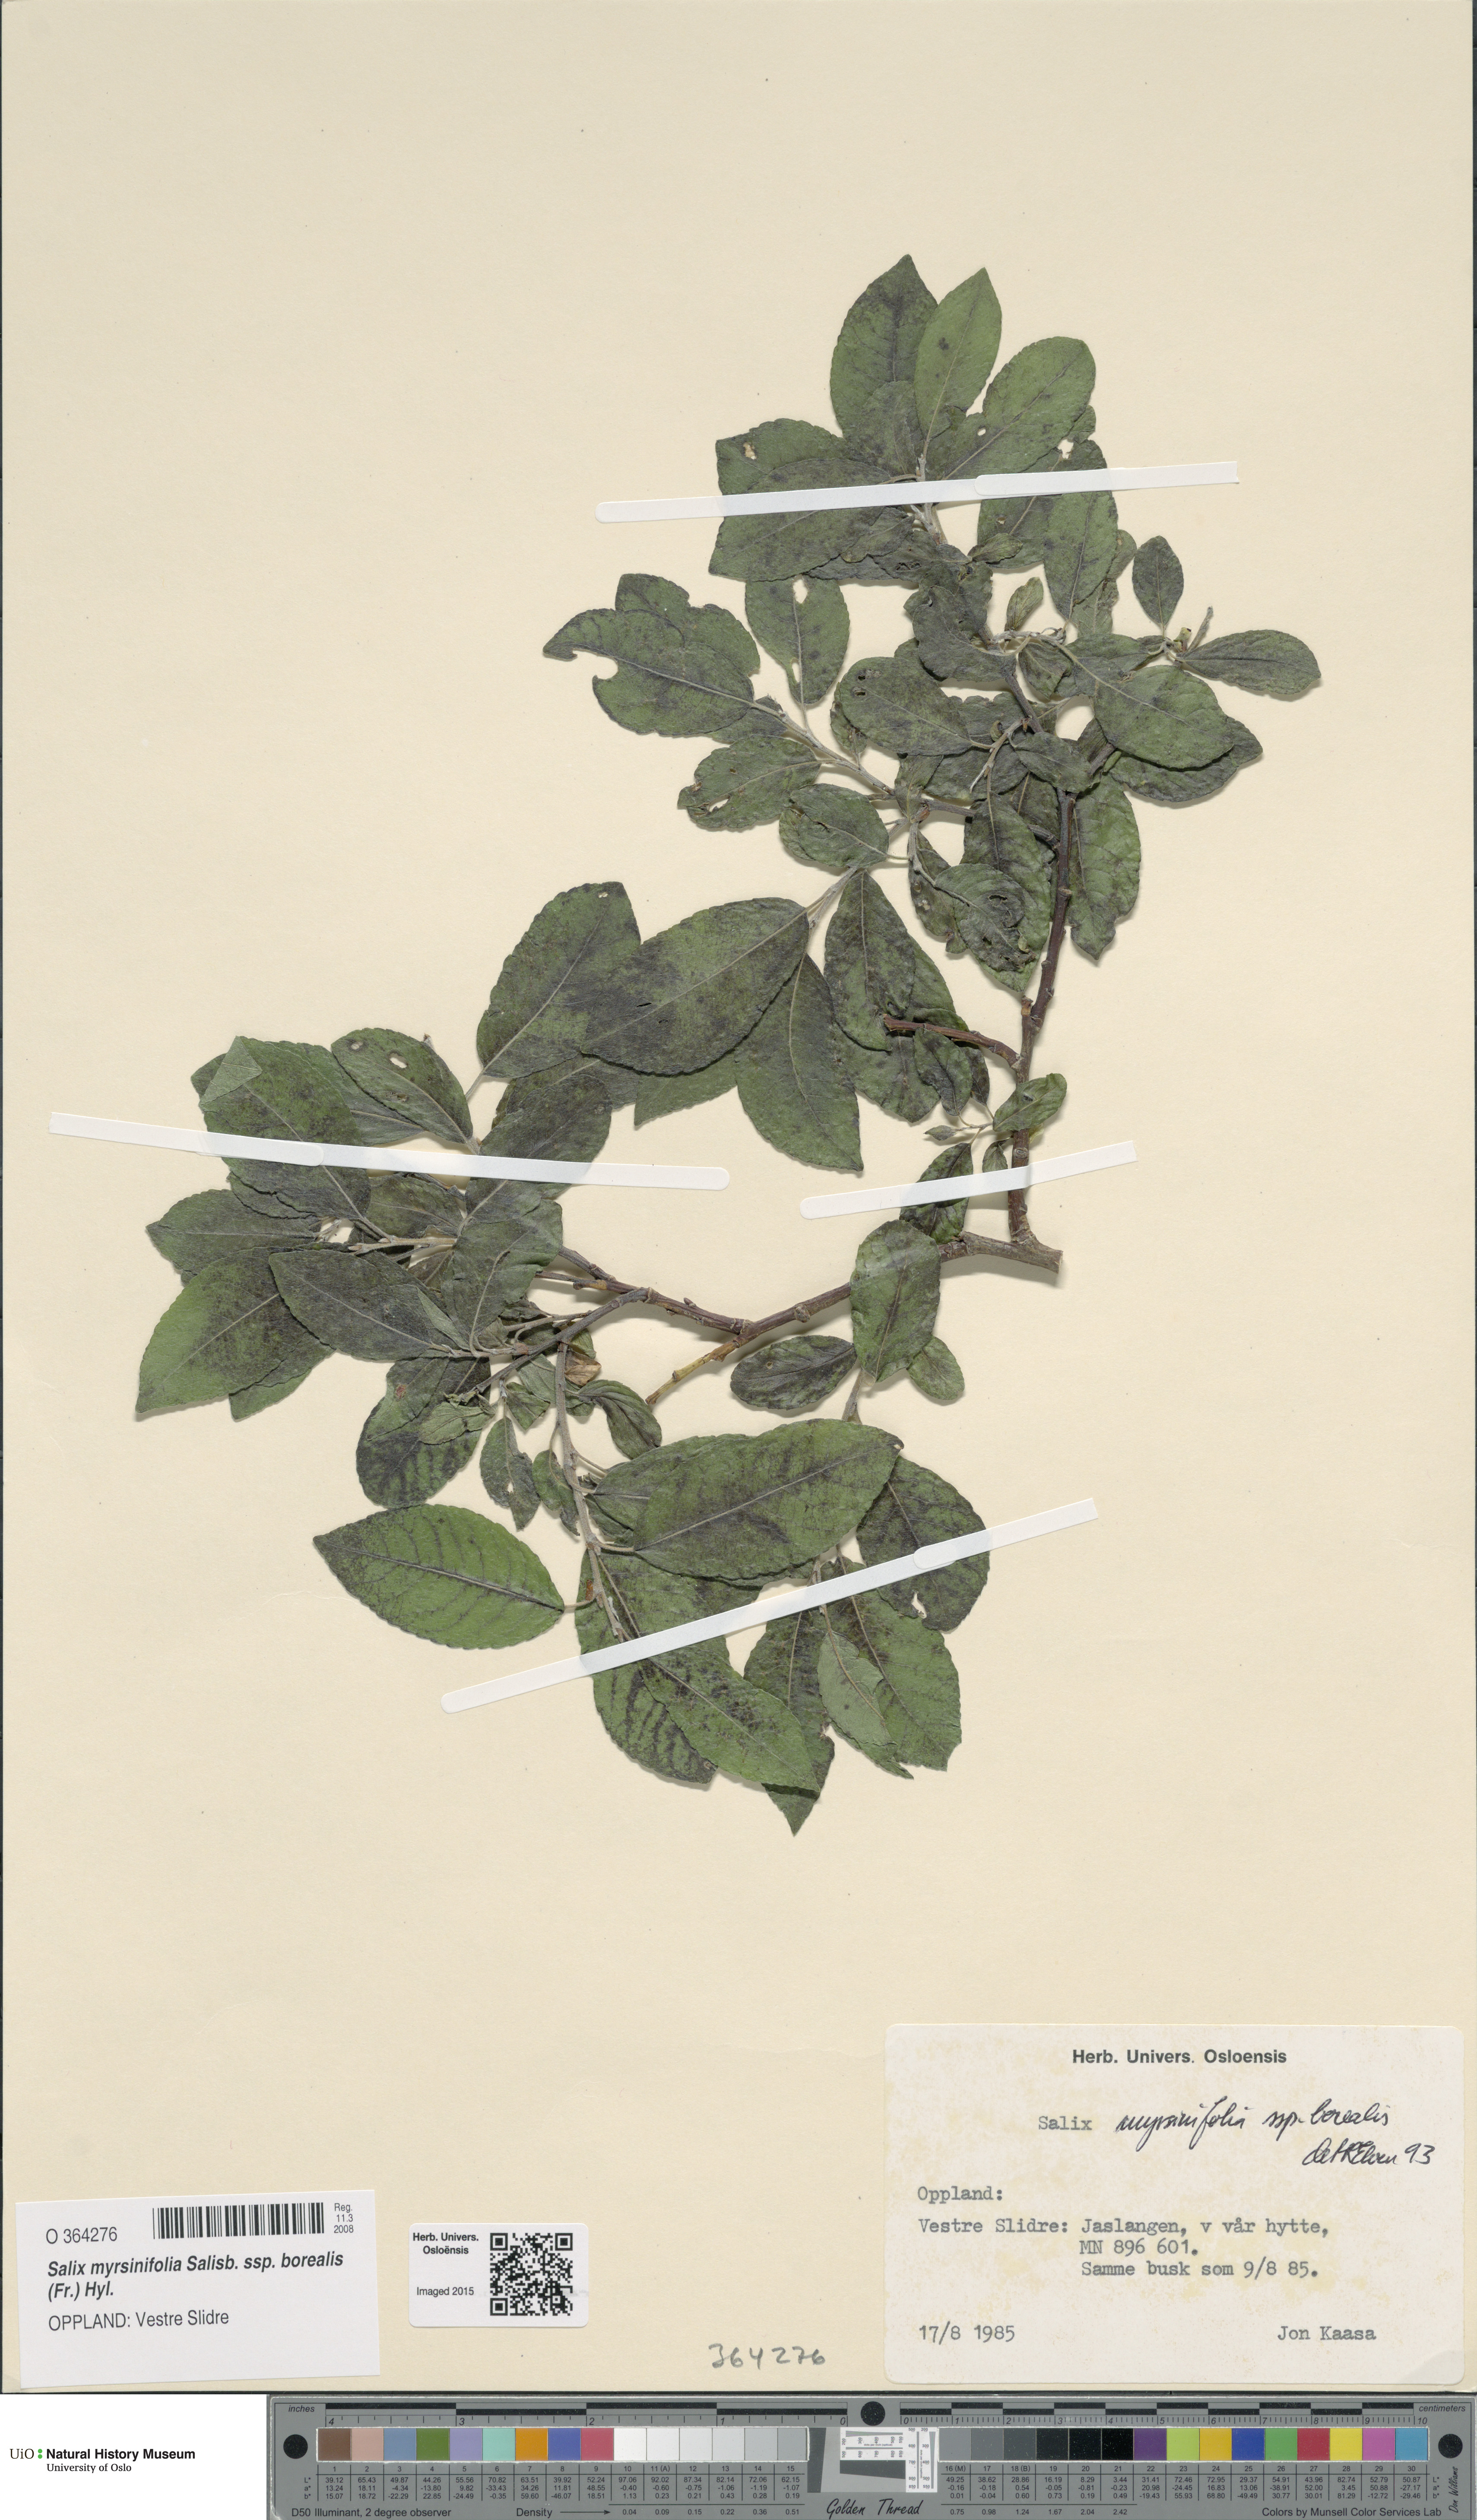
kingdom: Plantae
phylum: Tracheophyta
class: Magnoliopsida
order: Malpighiales
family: Salicaceae
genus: Salix
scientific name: Salix myrsinifolia
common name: Dark-leaved willow
